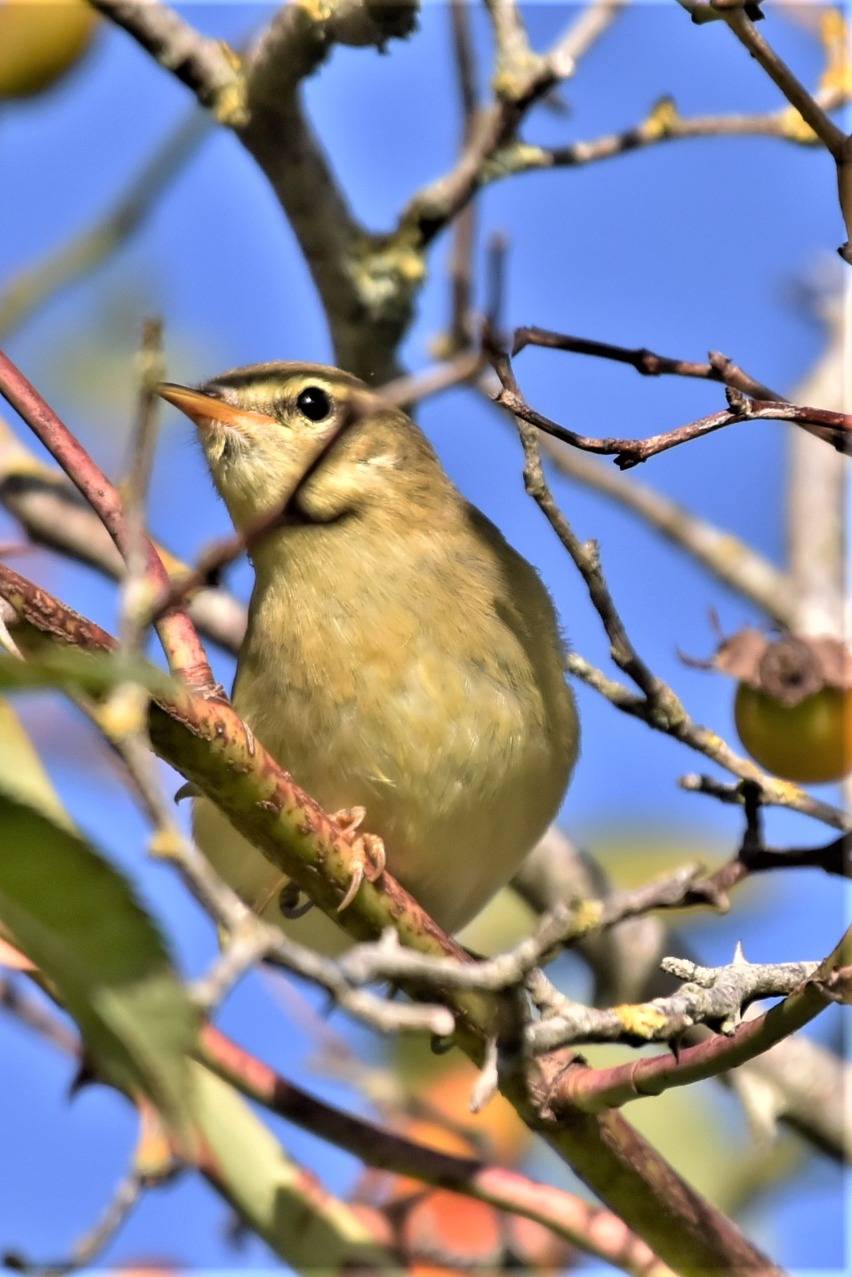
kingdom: Animalia
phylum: Chordata
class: Aves
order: Passeriformes
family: Phylloscopidae
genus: Phylloscopus
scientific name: Phylloscopus trochilus
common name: Løvsanger
